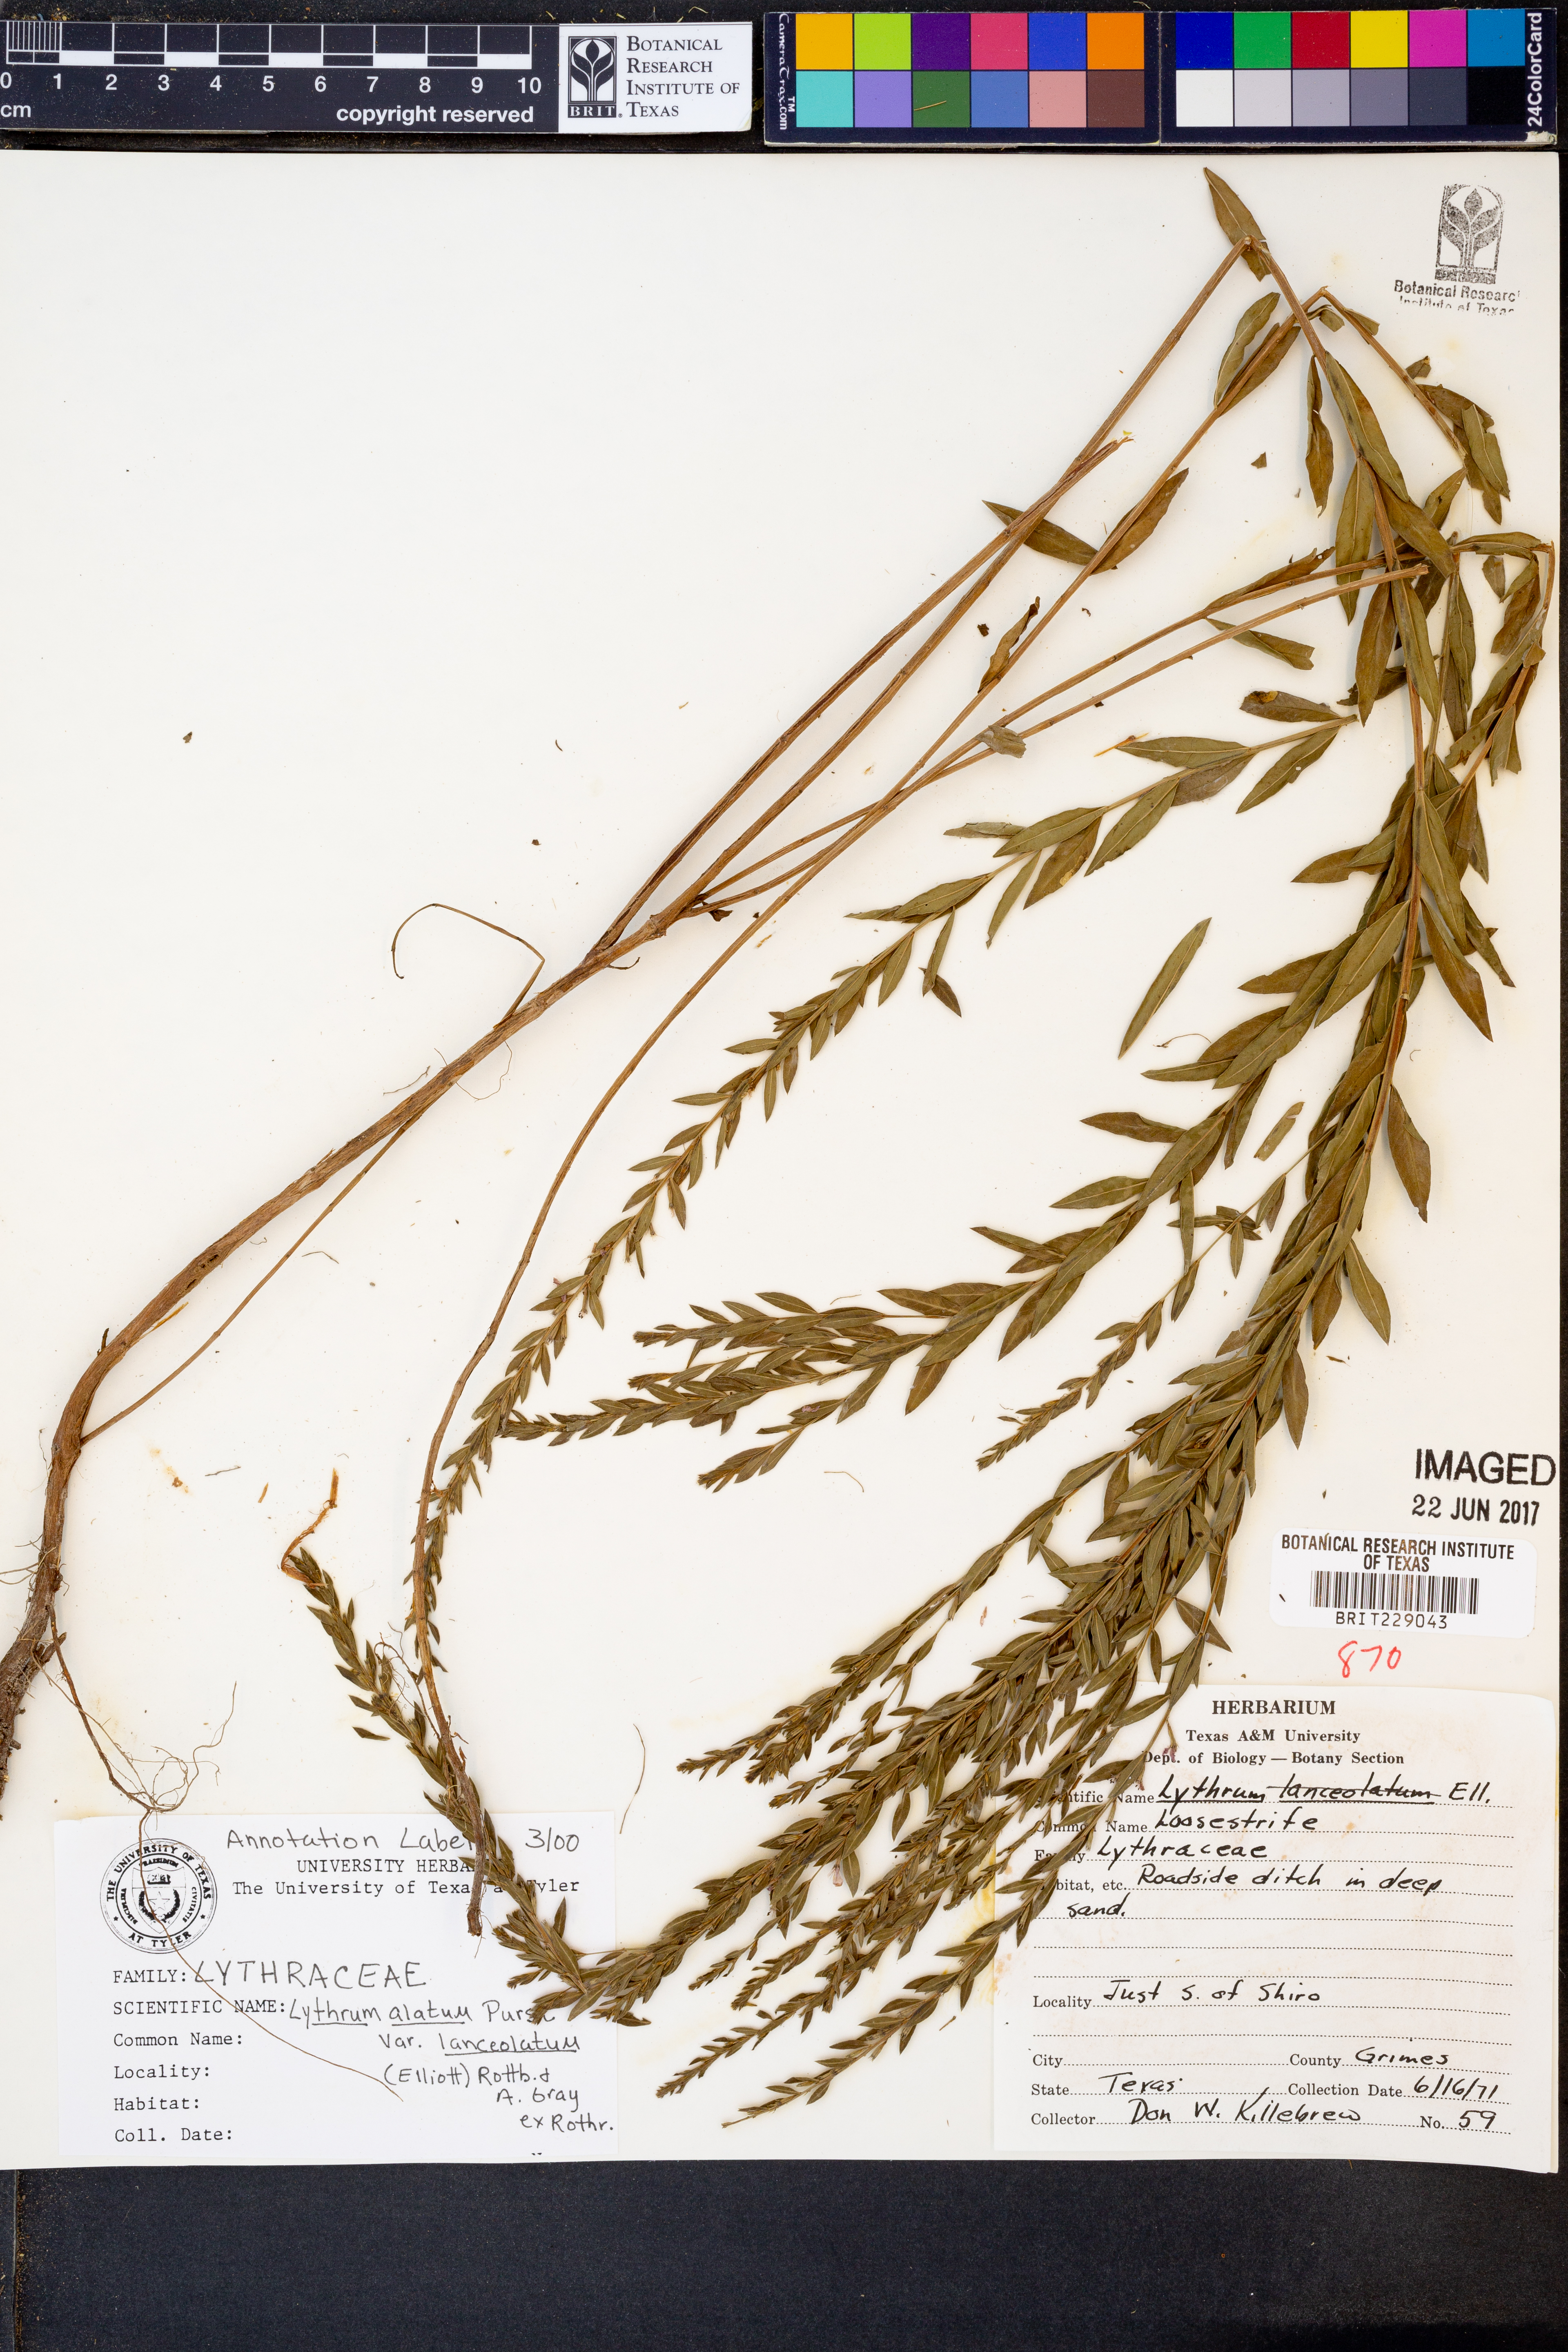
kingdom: Plantae
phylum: Tracheophyta
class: Magnoliopsida
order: Myrtales
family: Lythraceae
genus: Lythrum
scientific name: Lythrum alatum
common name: Winged loosestrife
